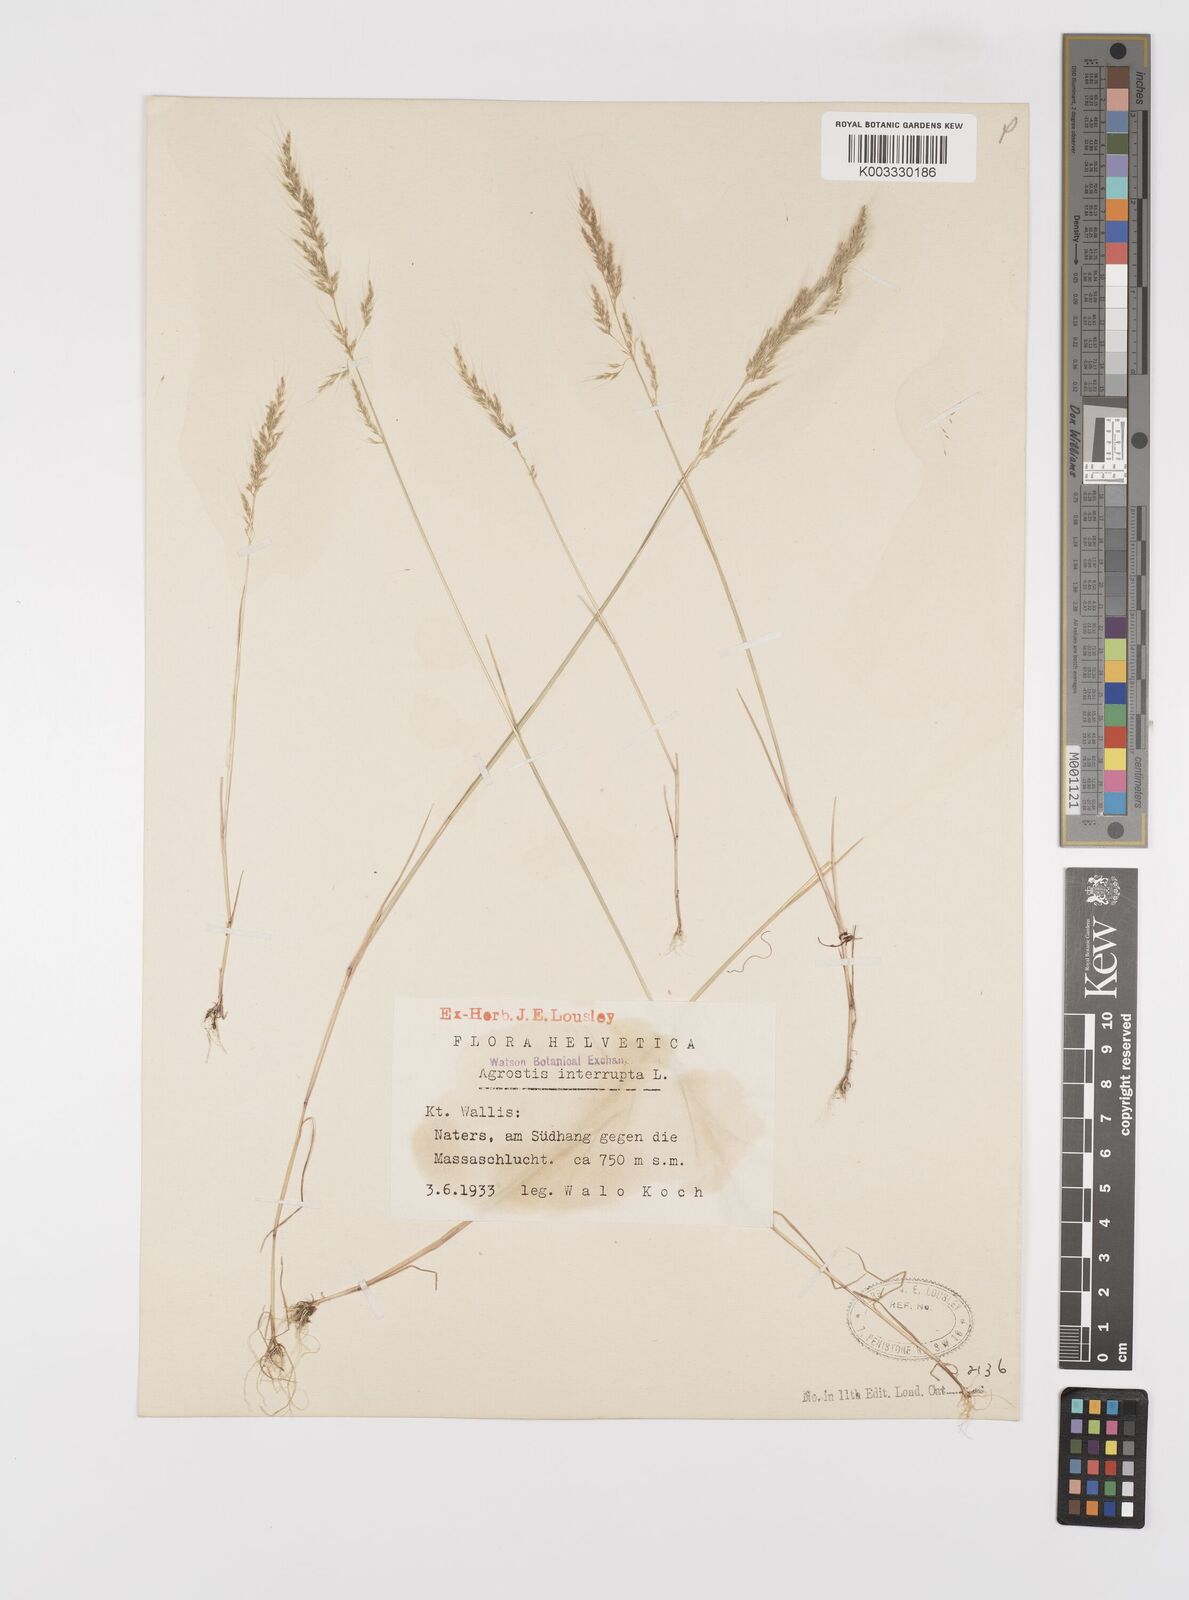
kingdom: Plantae
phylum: Tracheophyta
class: Liliopsida
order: Poales
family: Poaceae
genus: Apera
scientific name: Apera interrupta
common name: Dense silky-bent
